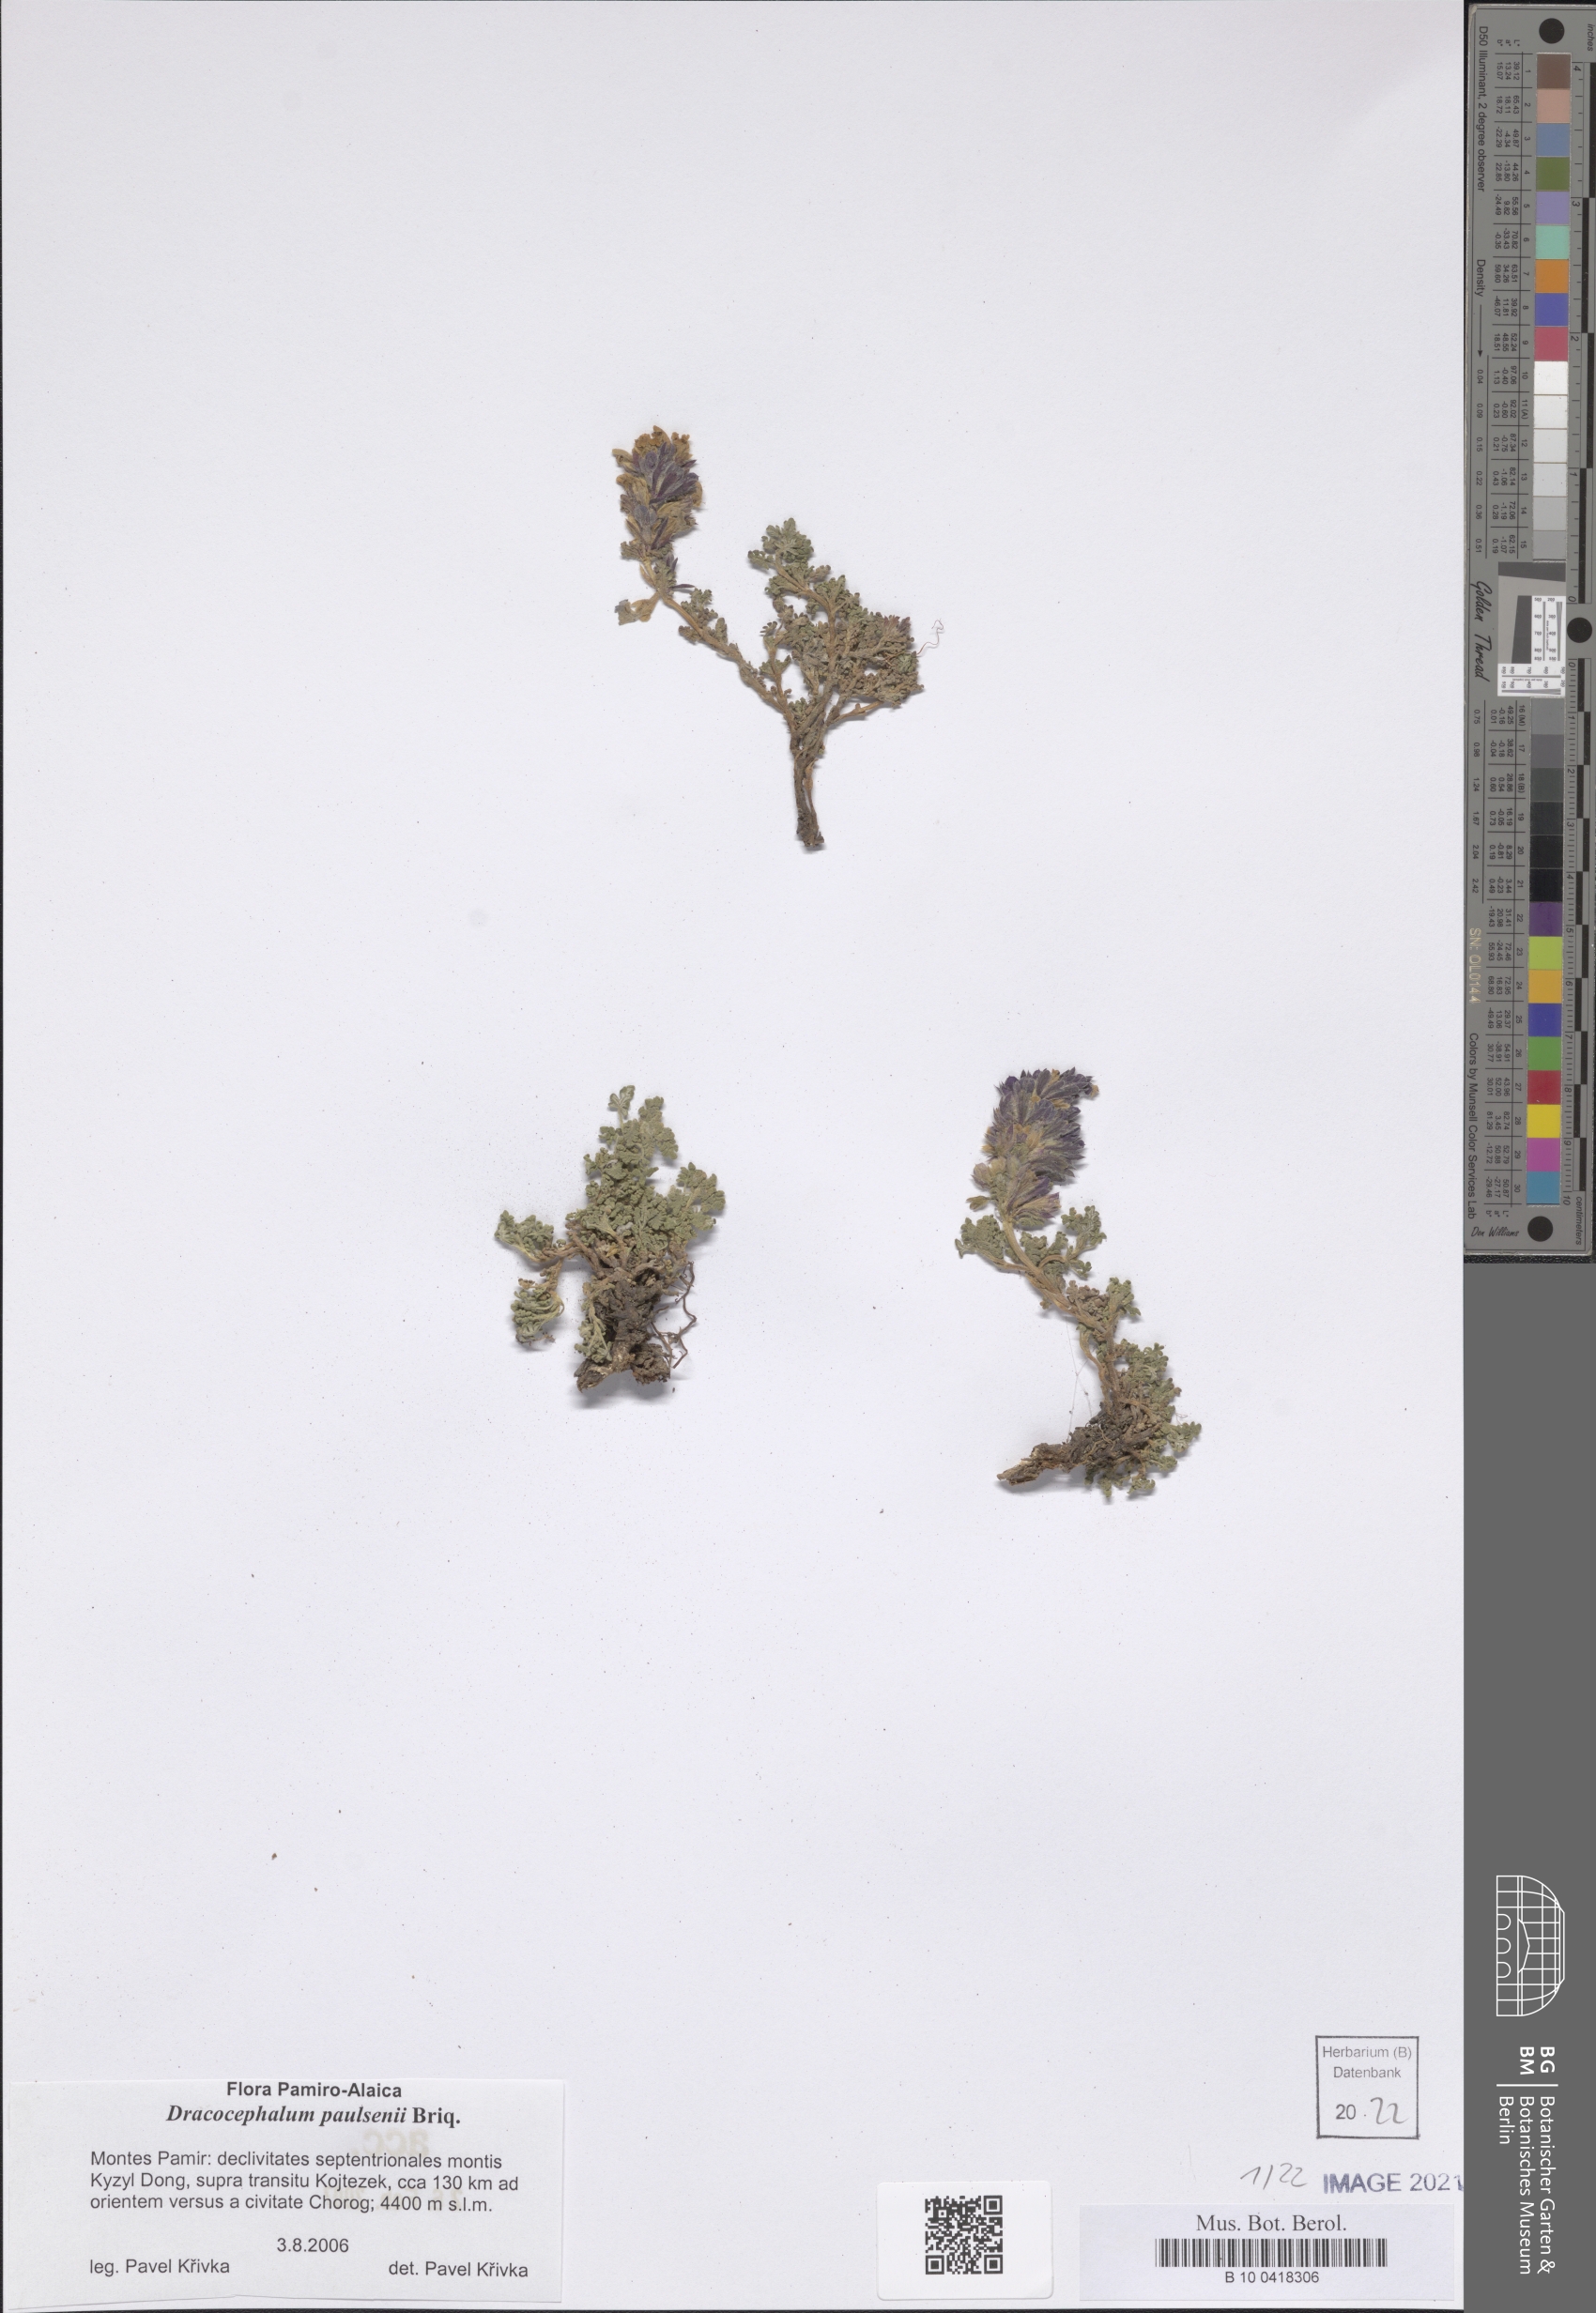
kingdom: Plantae
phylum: Tracheophyta
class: Magnoliopsida
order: Lamiales
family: Lamiaceae
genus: Dracocephalum
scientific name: Dracocephalum paulsenii
